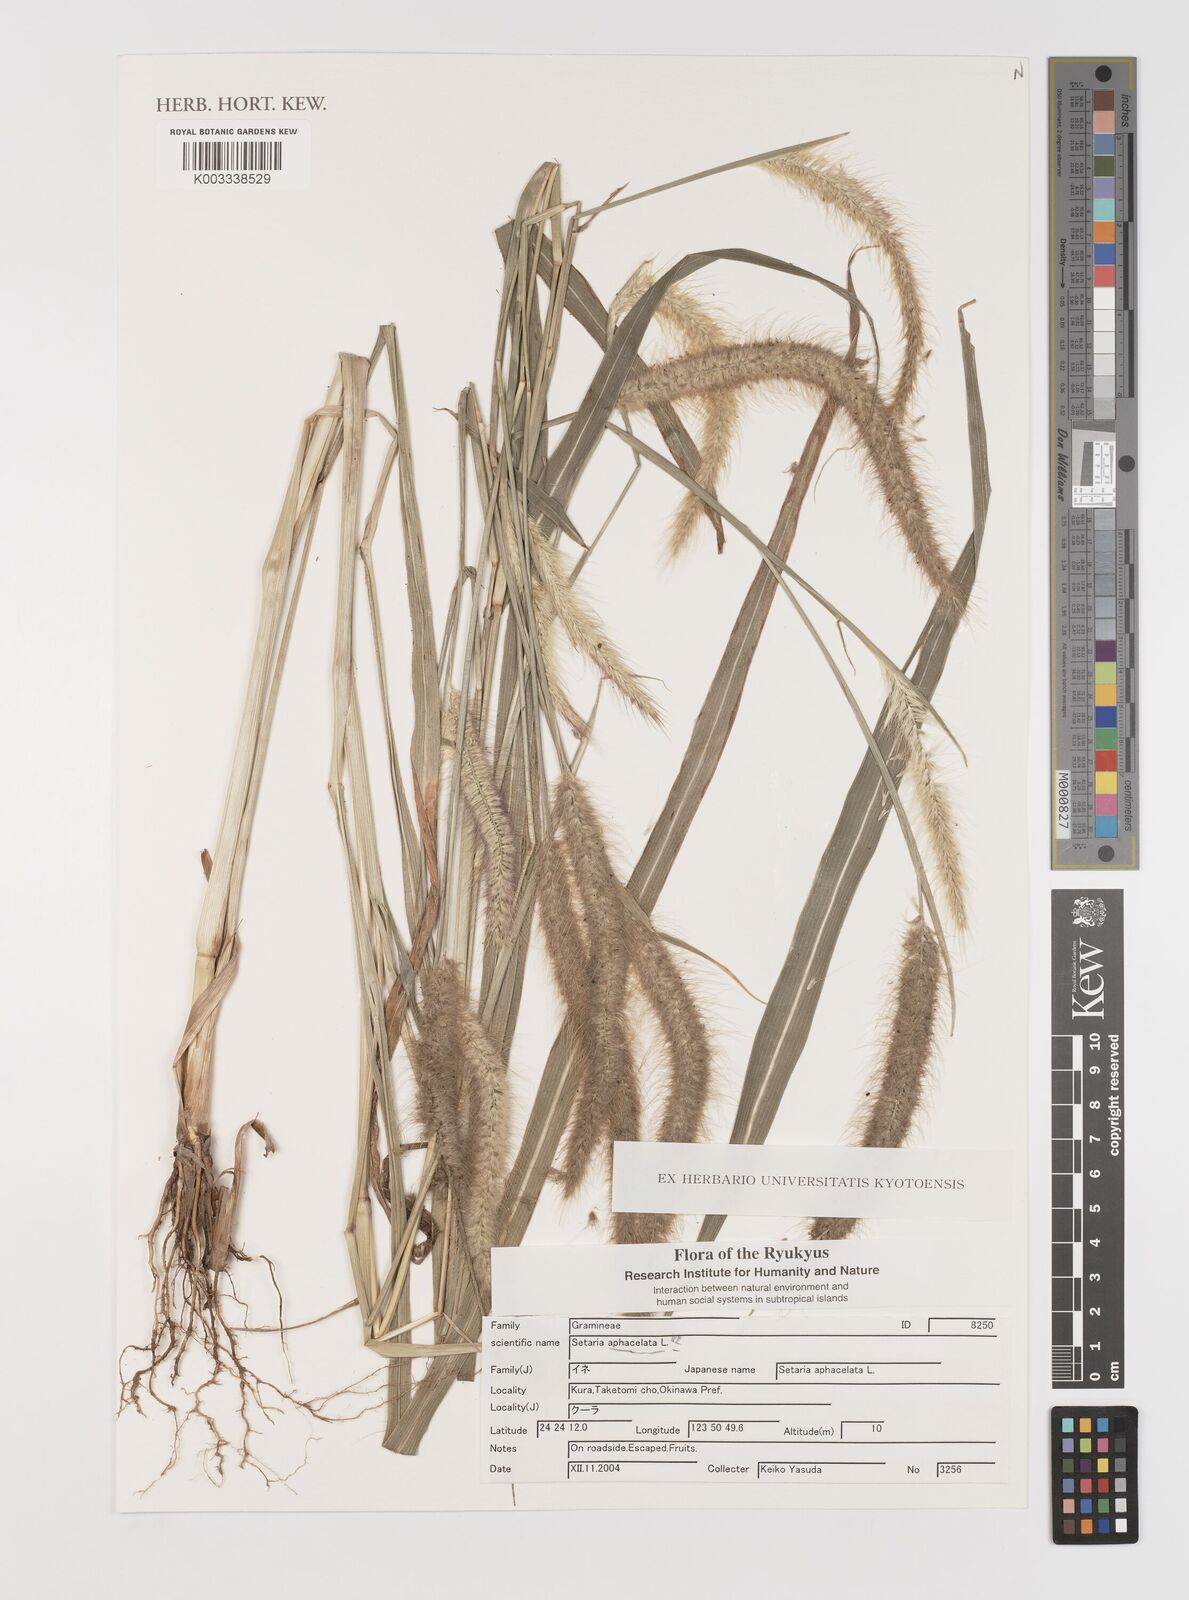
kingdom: Plantae
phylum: Tracheophyta
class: Liliopsida
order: Poales
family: Poaceae
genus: Setaria
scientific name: Setaria
